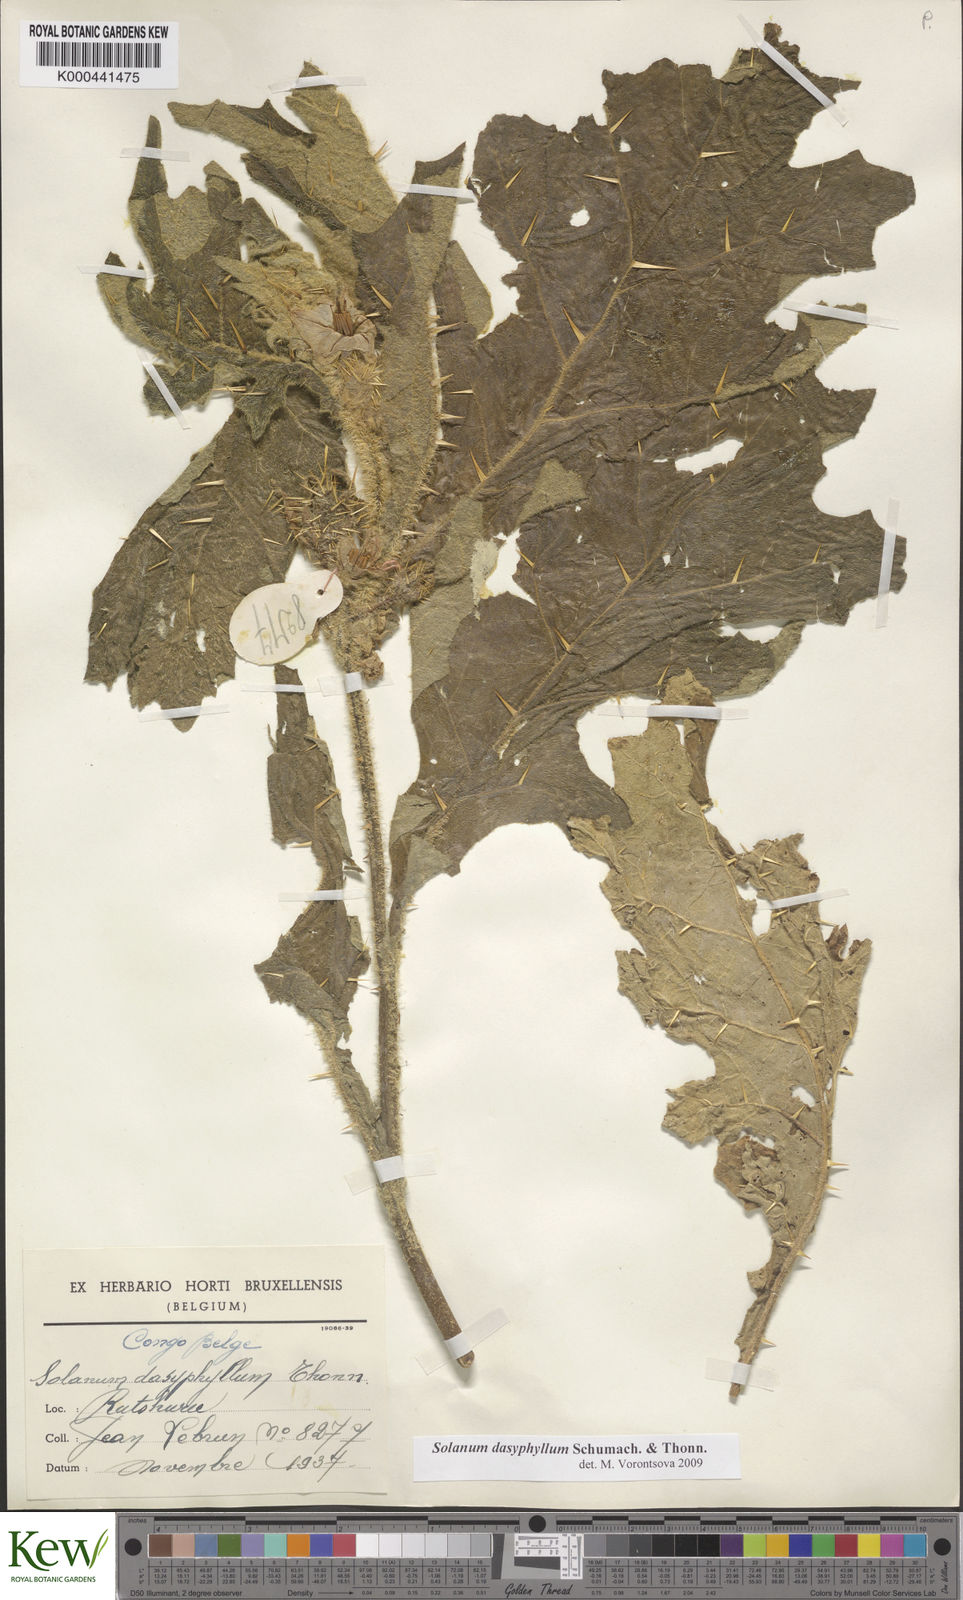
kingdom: Plantae
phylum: Tracheophyta
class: Magnoliopsida
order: Solanales
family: Solanaceae
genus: Solanum
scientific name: Solanum dasyphyllum
